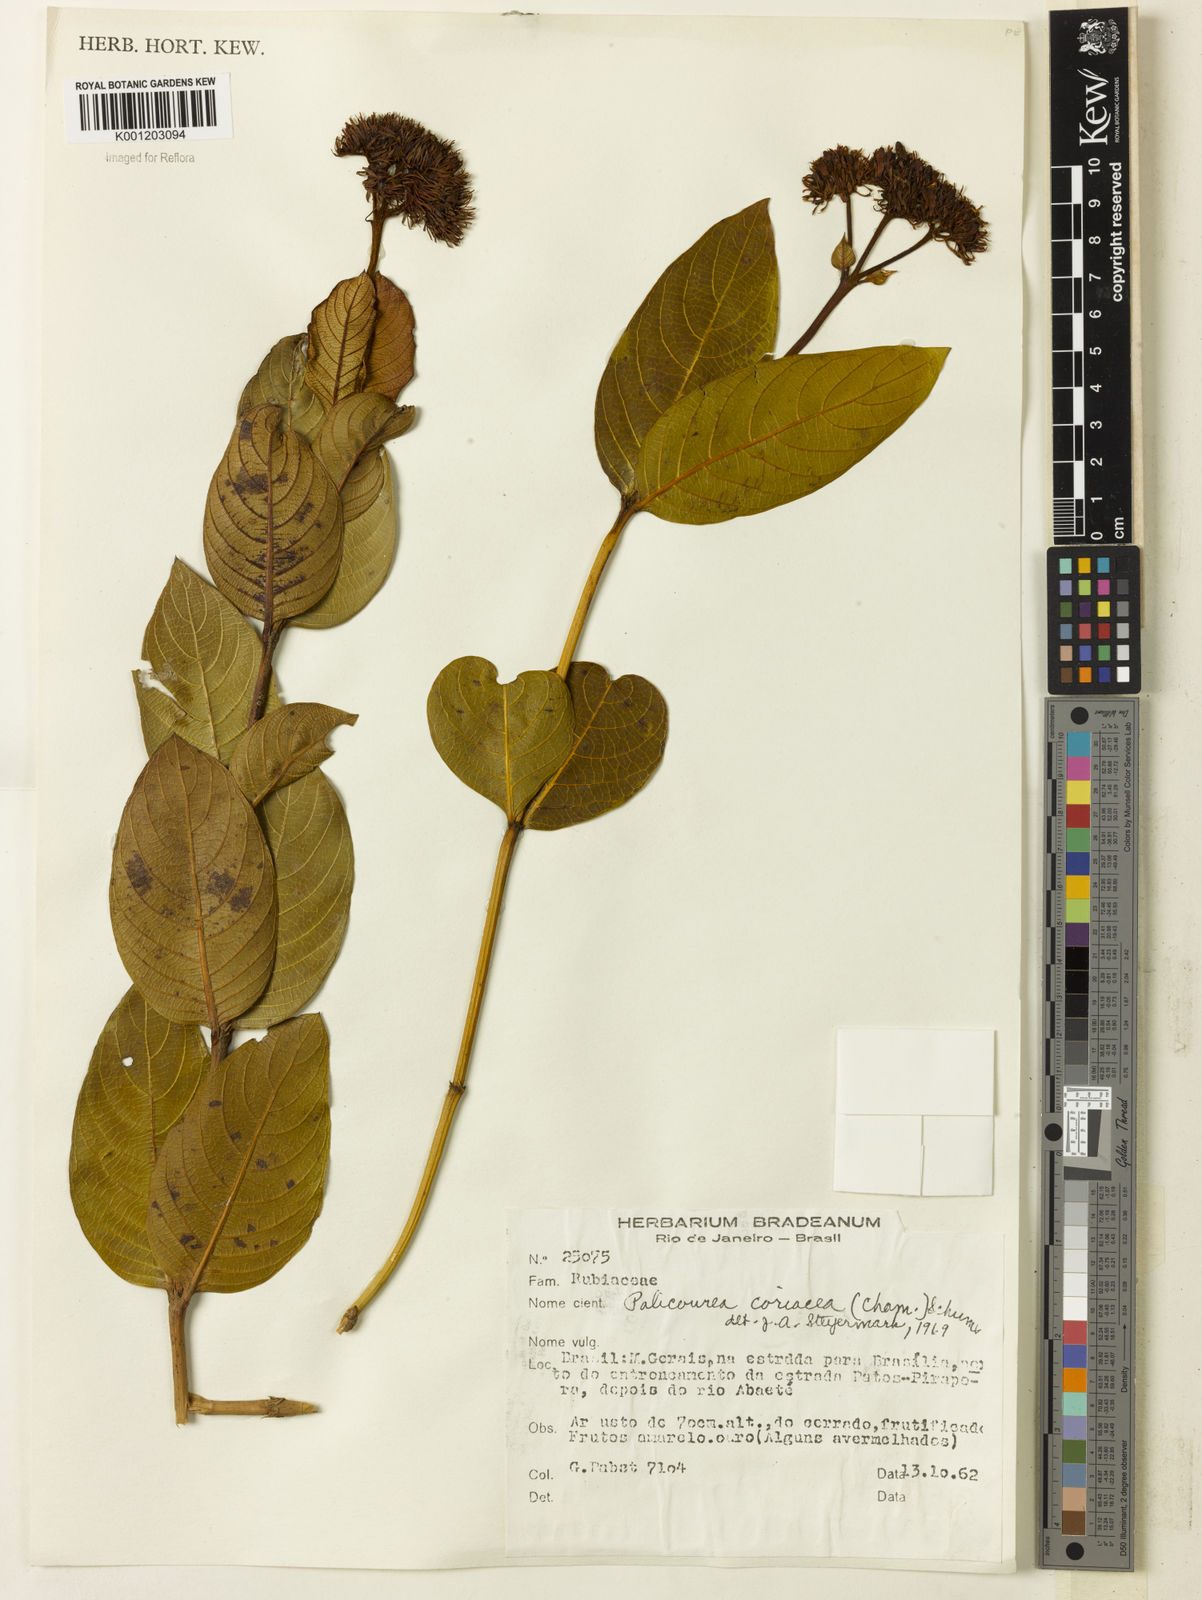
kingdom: Plantae
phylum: Tracheophyta
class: Magnoliopsida
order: Gentianales
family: Rubiaceae
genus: Palicourea
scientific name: Palicourea coriacea
